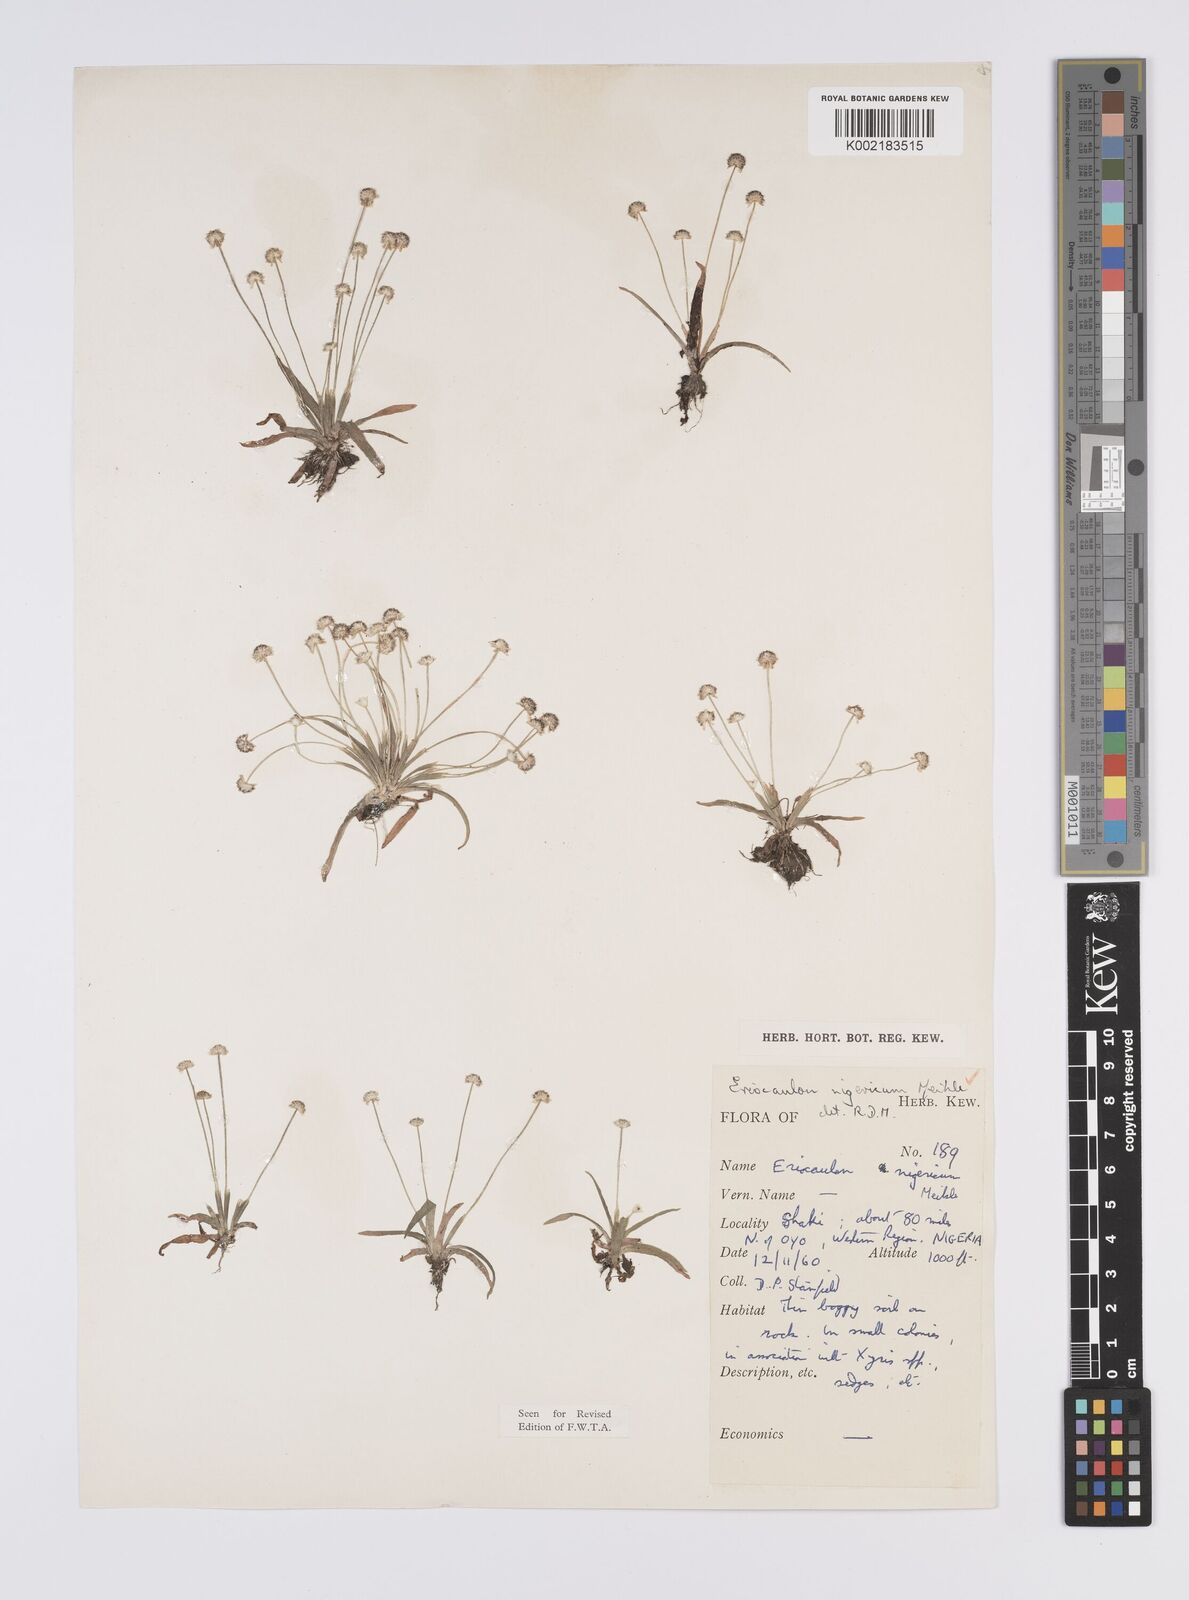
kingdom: Plantae
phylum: Tracheophyta
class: Liliopsida
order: Poales
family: Eriocaulaceae
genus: Eriocaulon
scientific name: Eriocaulon nigericum
